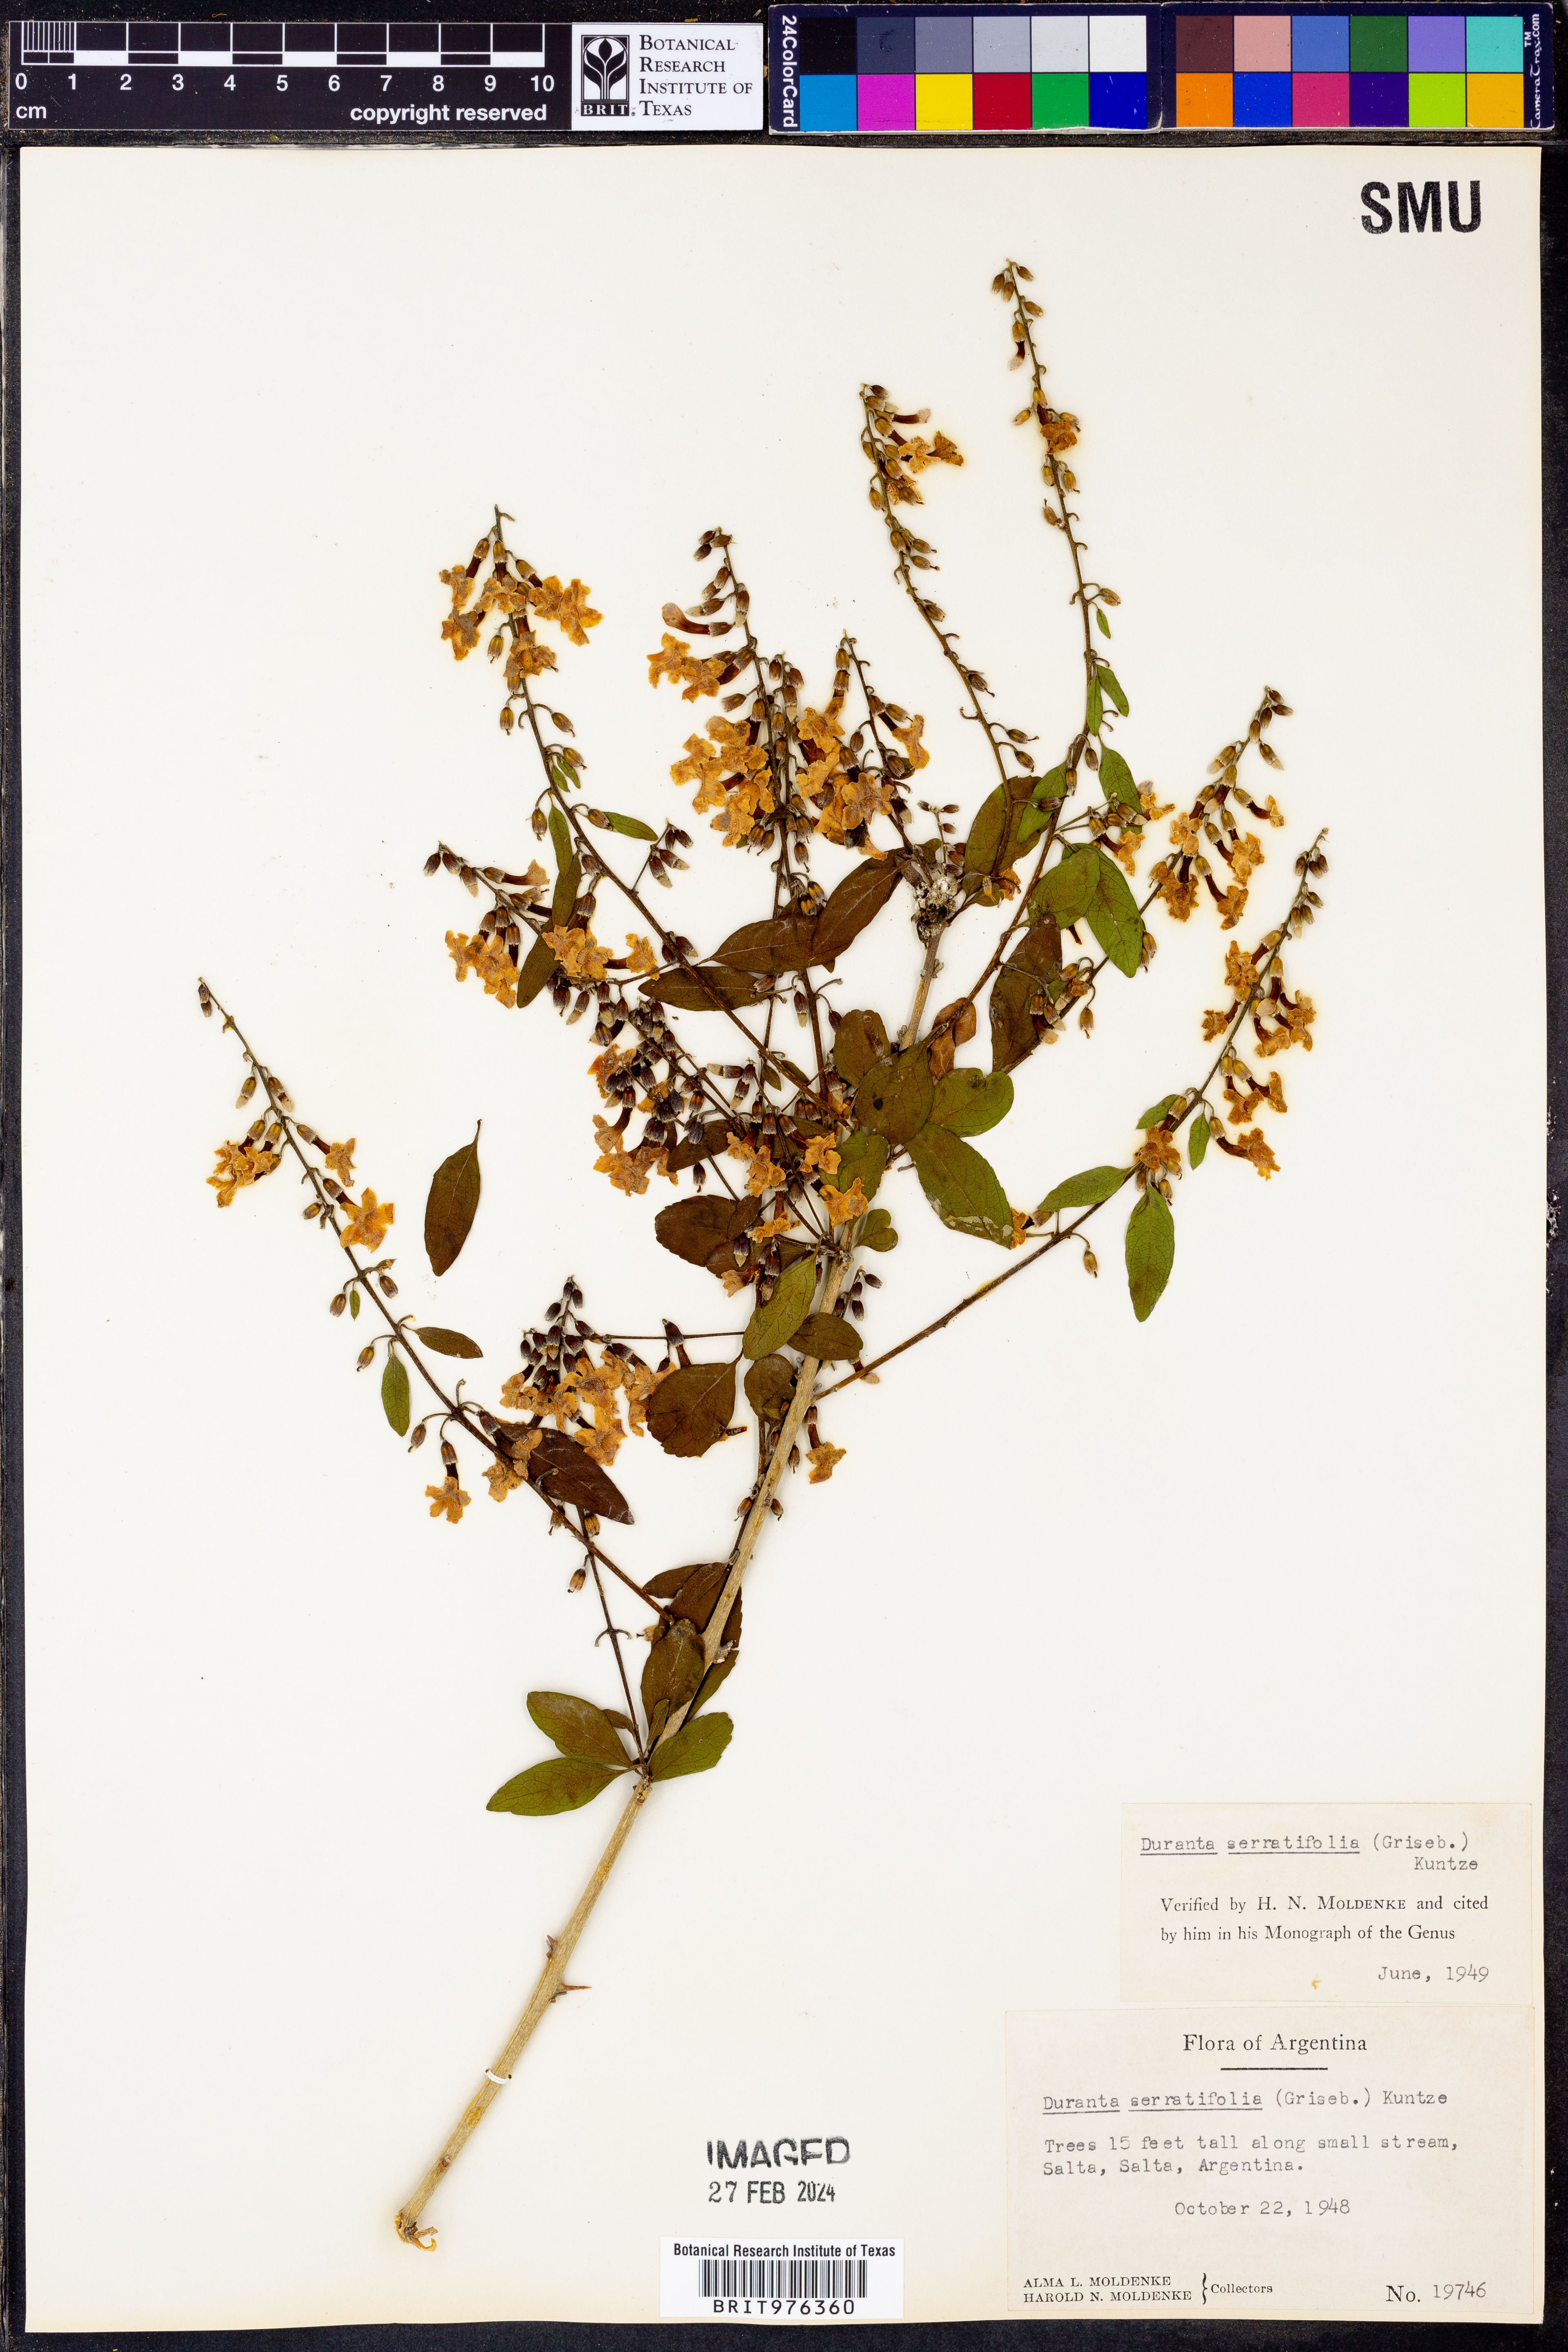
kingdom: Plantae
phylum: Tracheophyta
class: Magnoliopsida
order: Lamiales
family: Verbenaceae
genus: Duranta
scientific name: Duranta
